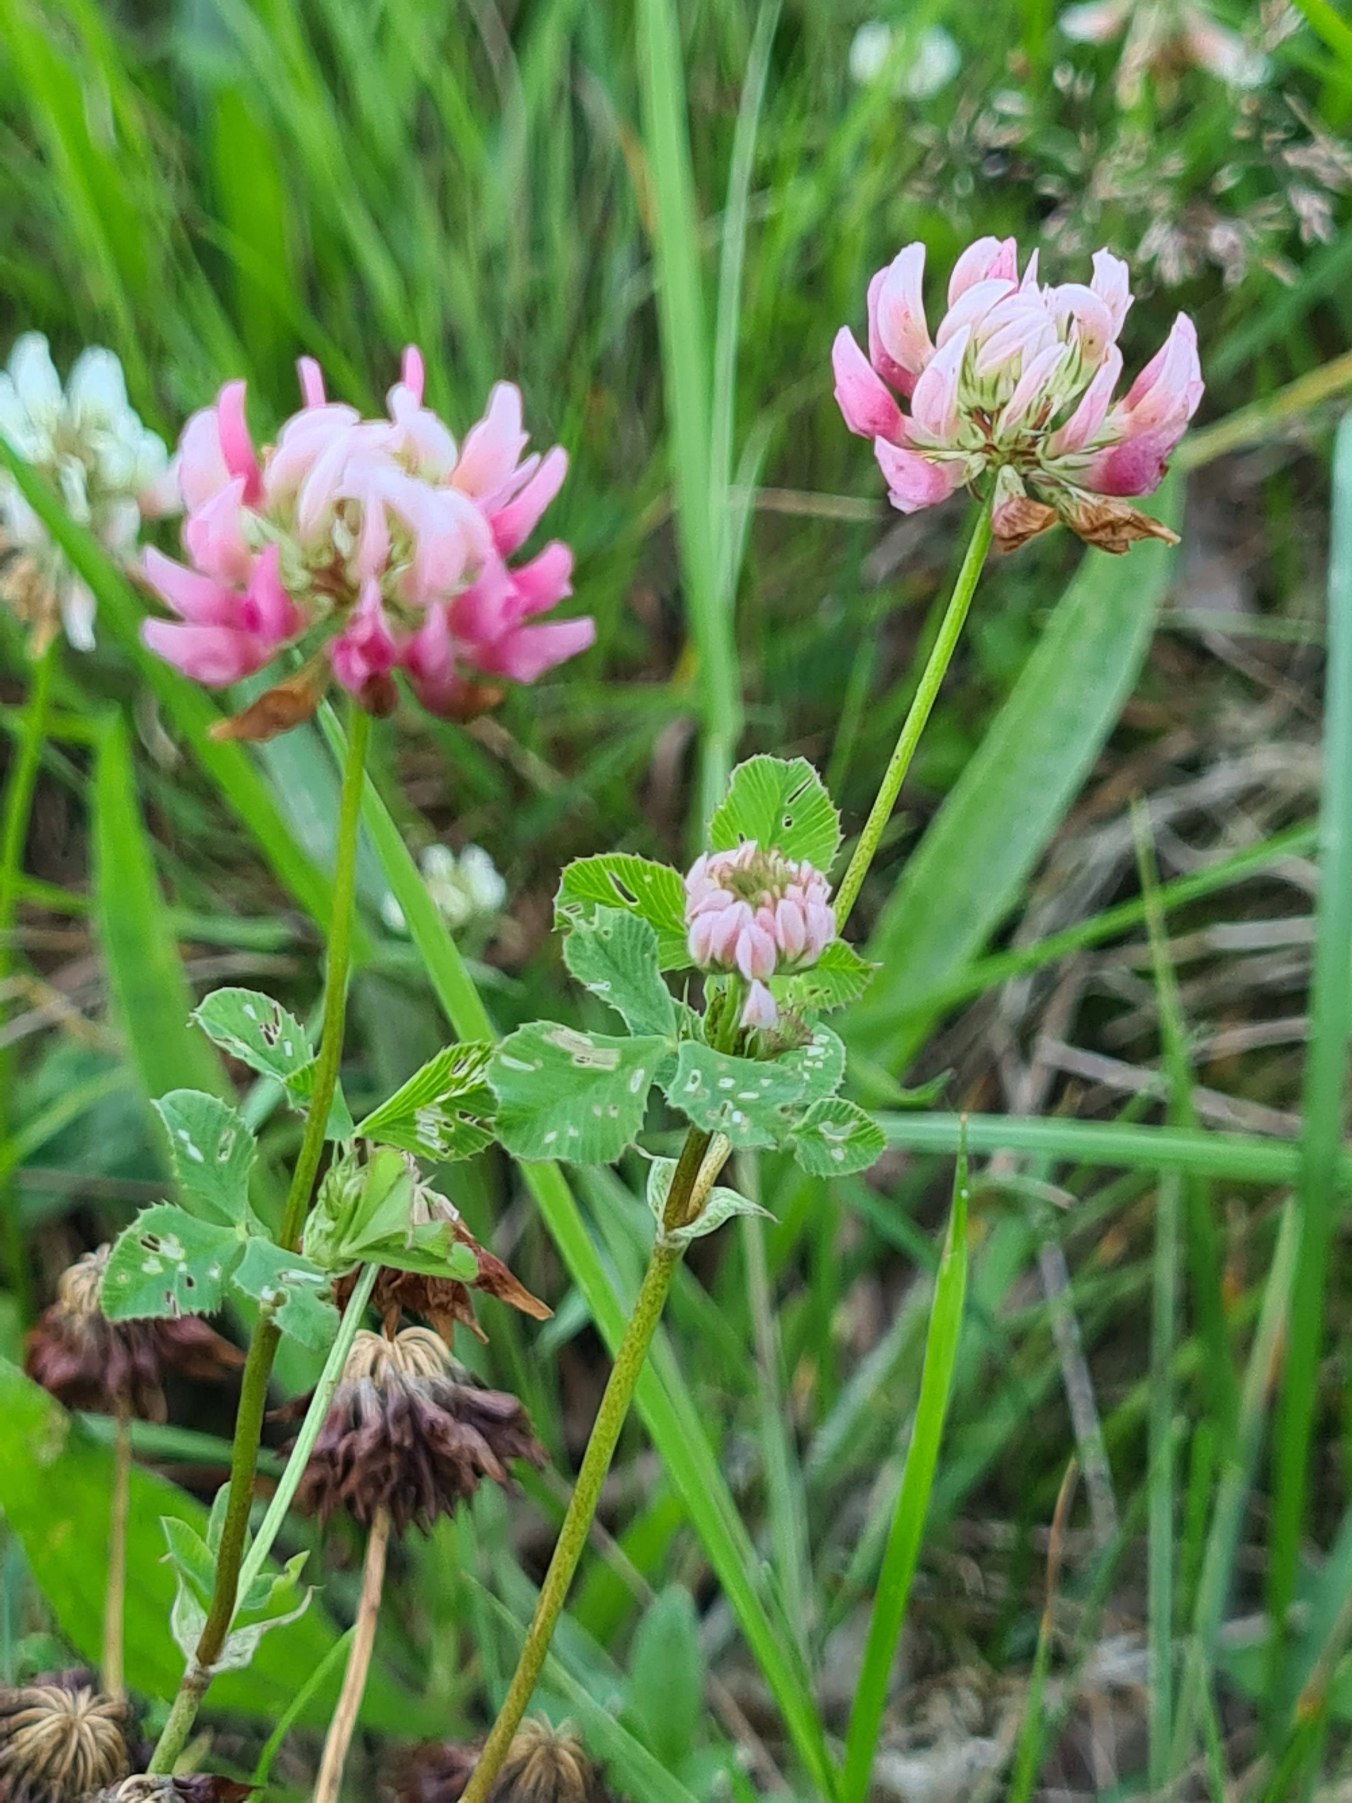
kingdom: Plantae
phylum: Tracheophyta
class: Magnoliopsida
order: Fabales
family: Fabaceae
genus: Trifolium
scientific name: Trifolium hybridum
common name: Alsike-kløver
